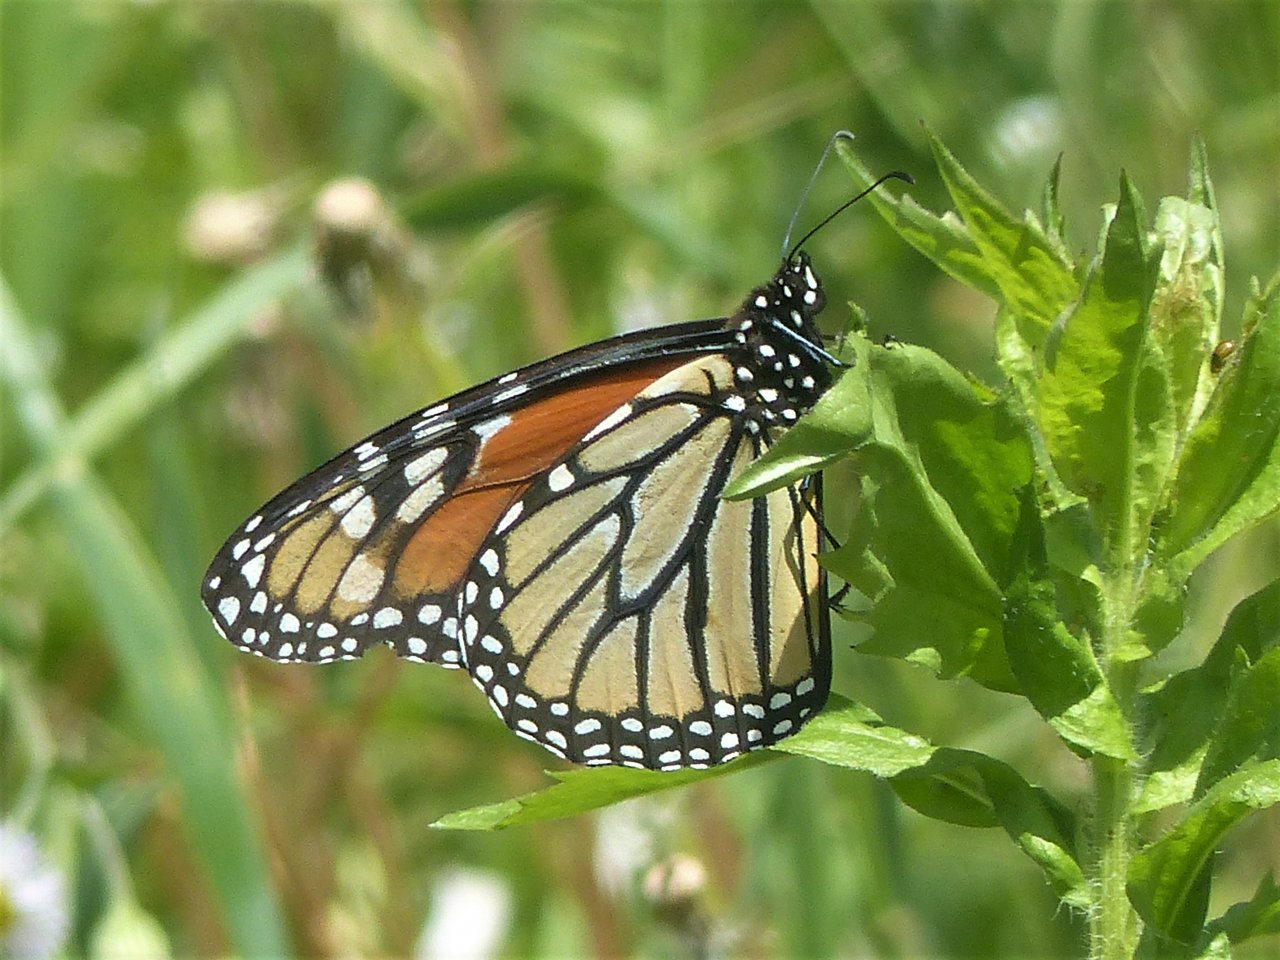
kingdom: Animalia
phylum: Arthropoda
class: Insecta
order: Lepidoptera
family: Nymphalidae
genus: Danaus
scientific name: Danaus plexippus
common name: Monarch
